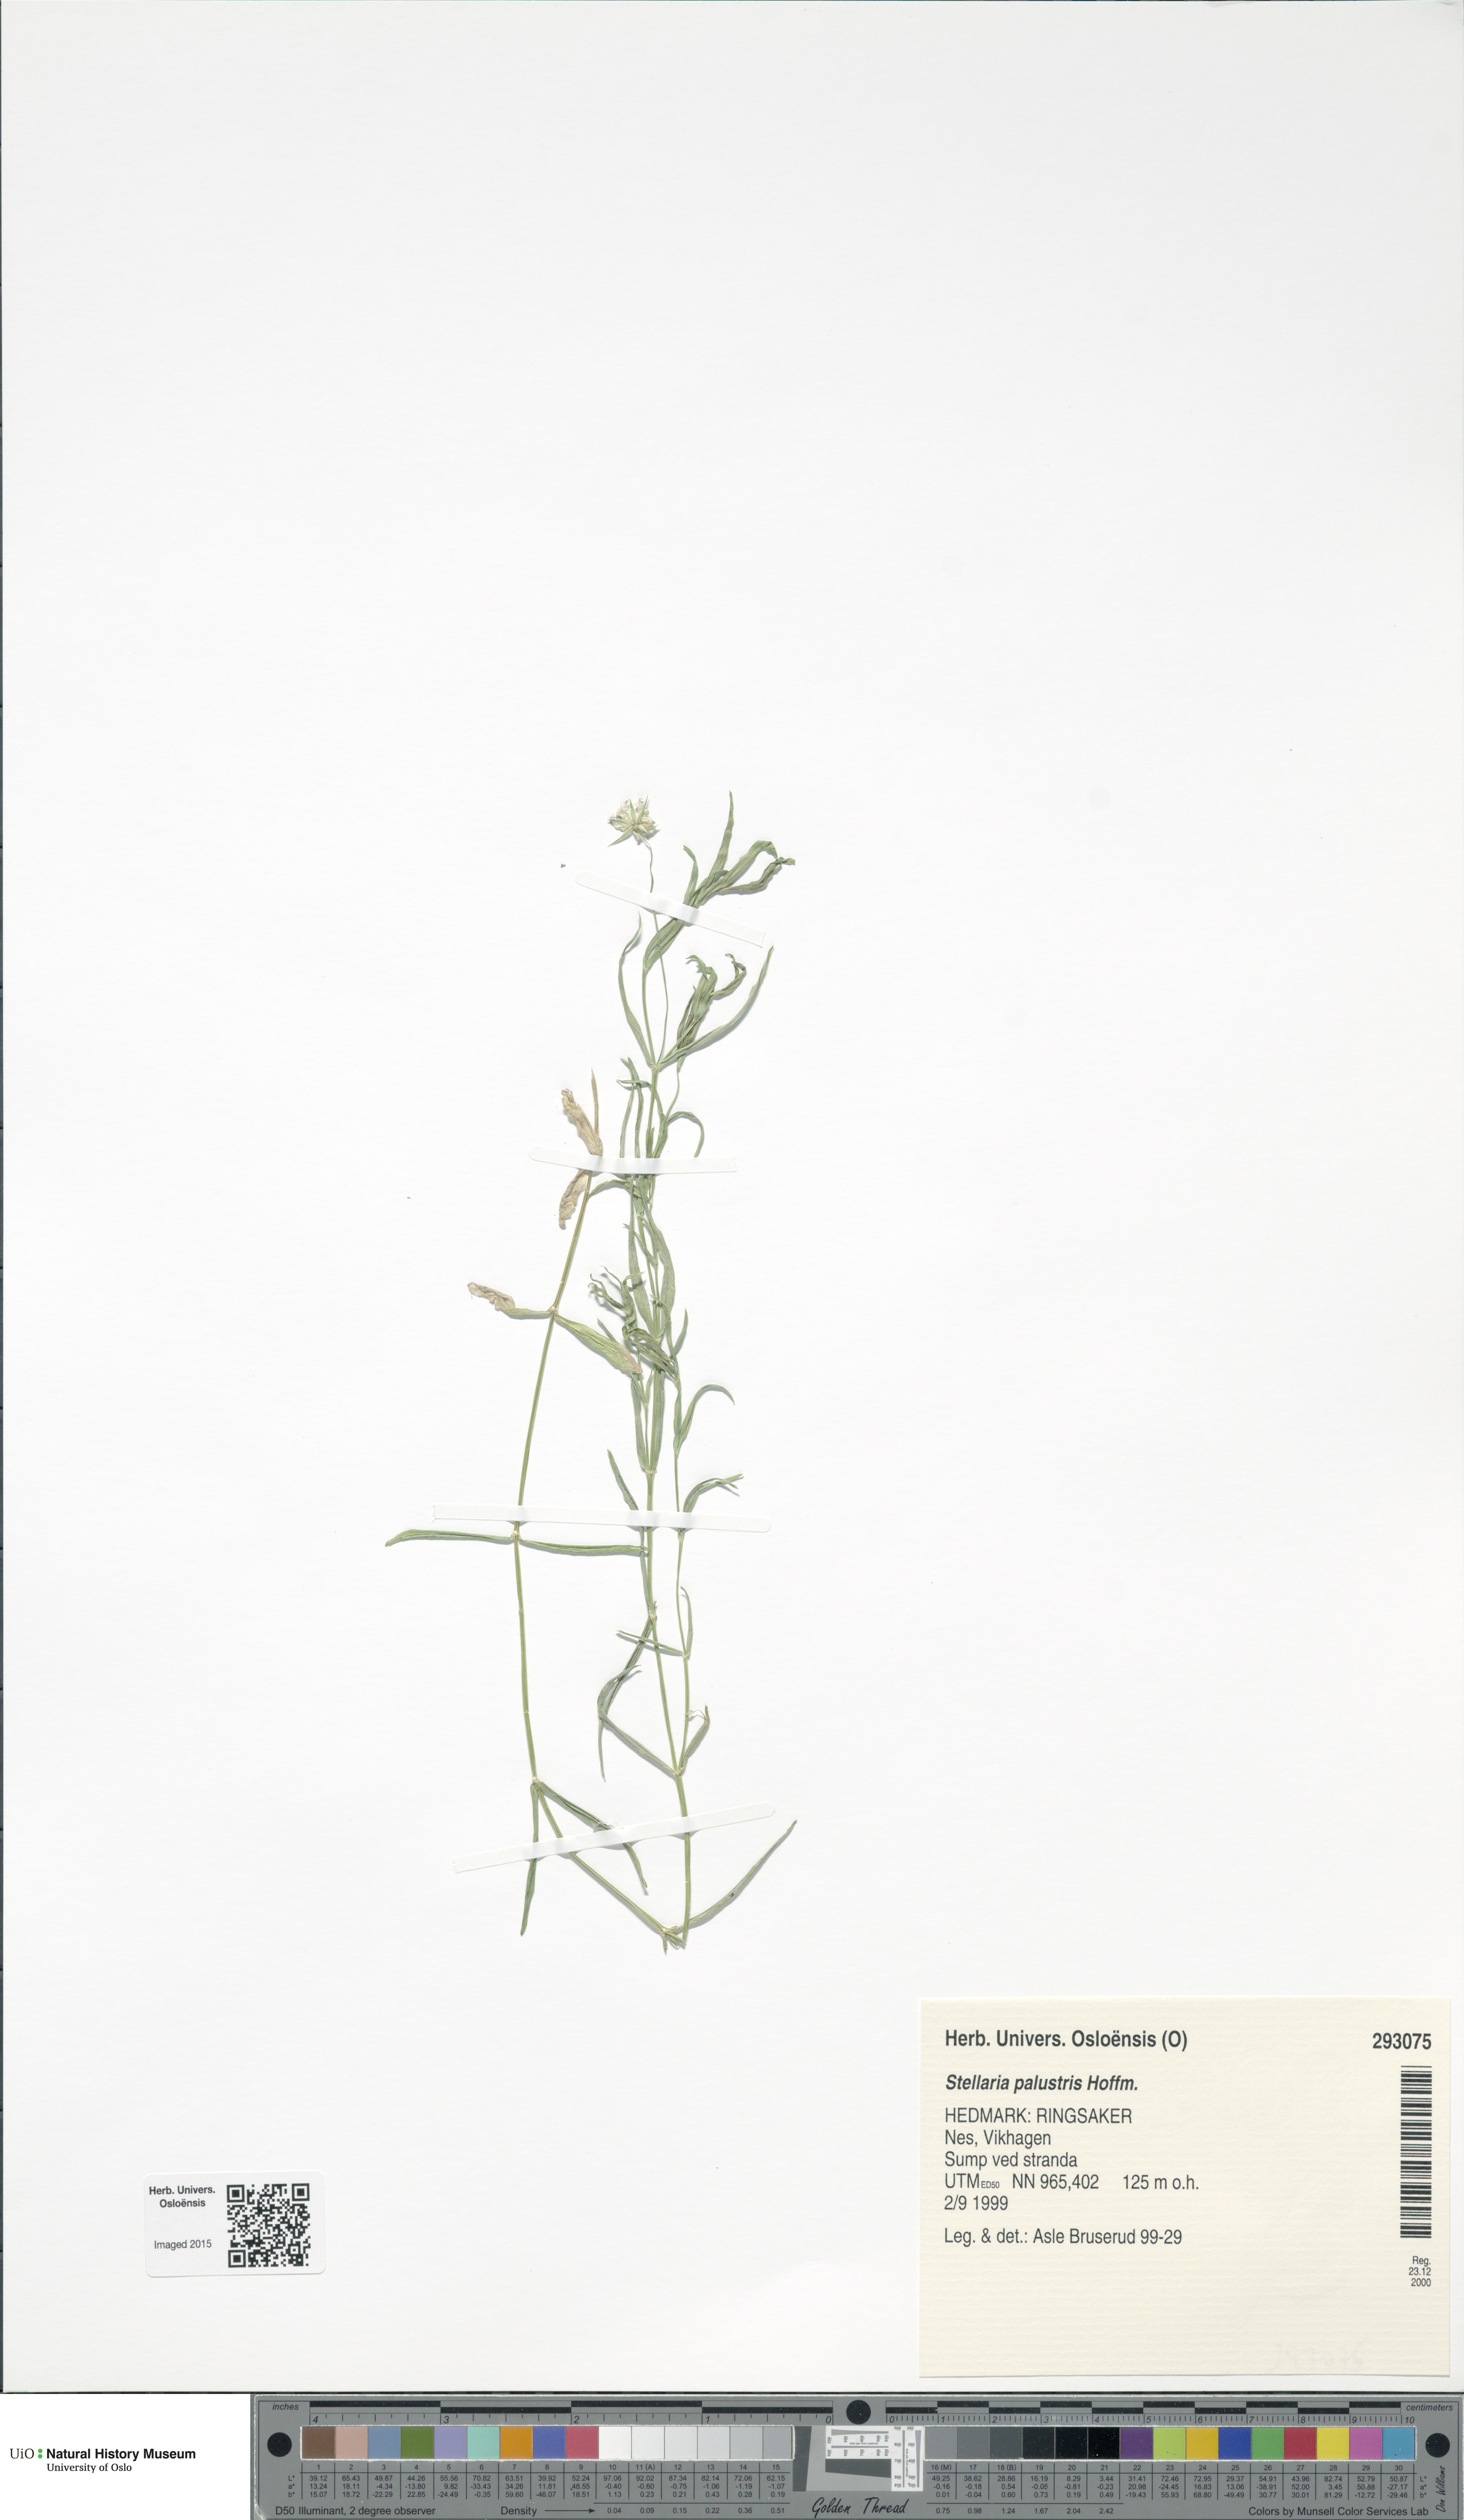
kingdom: Plantae
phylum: Tracheophyta
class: Magnoliopsida
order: Caryophyllales
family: Caryophyllaceae
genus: Stellaria
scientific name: Stellaria palustris
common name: Marsh stitchwort
